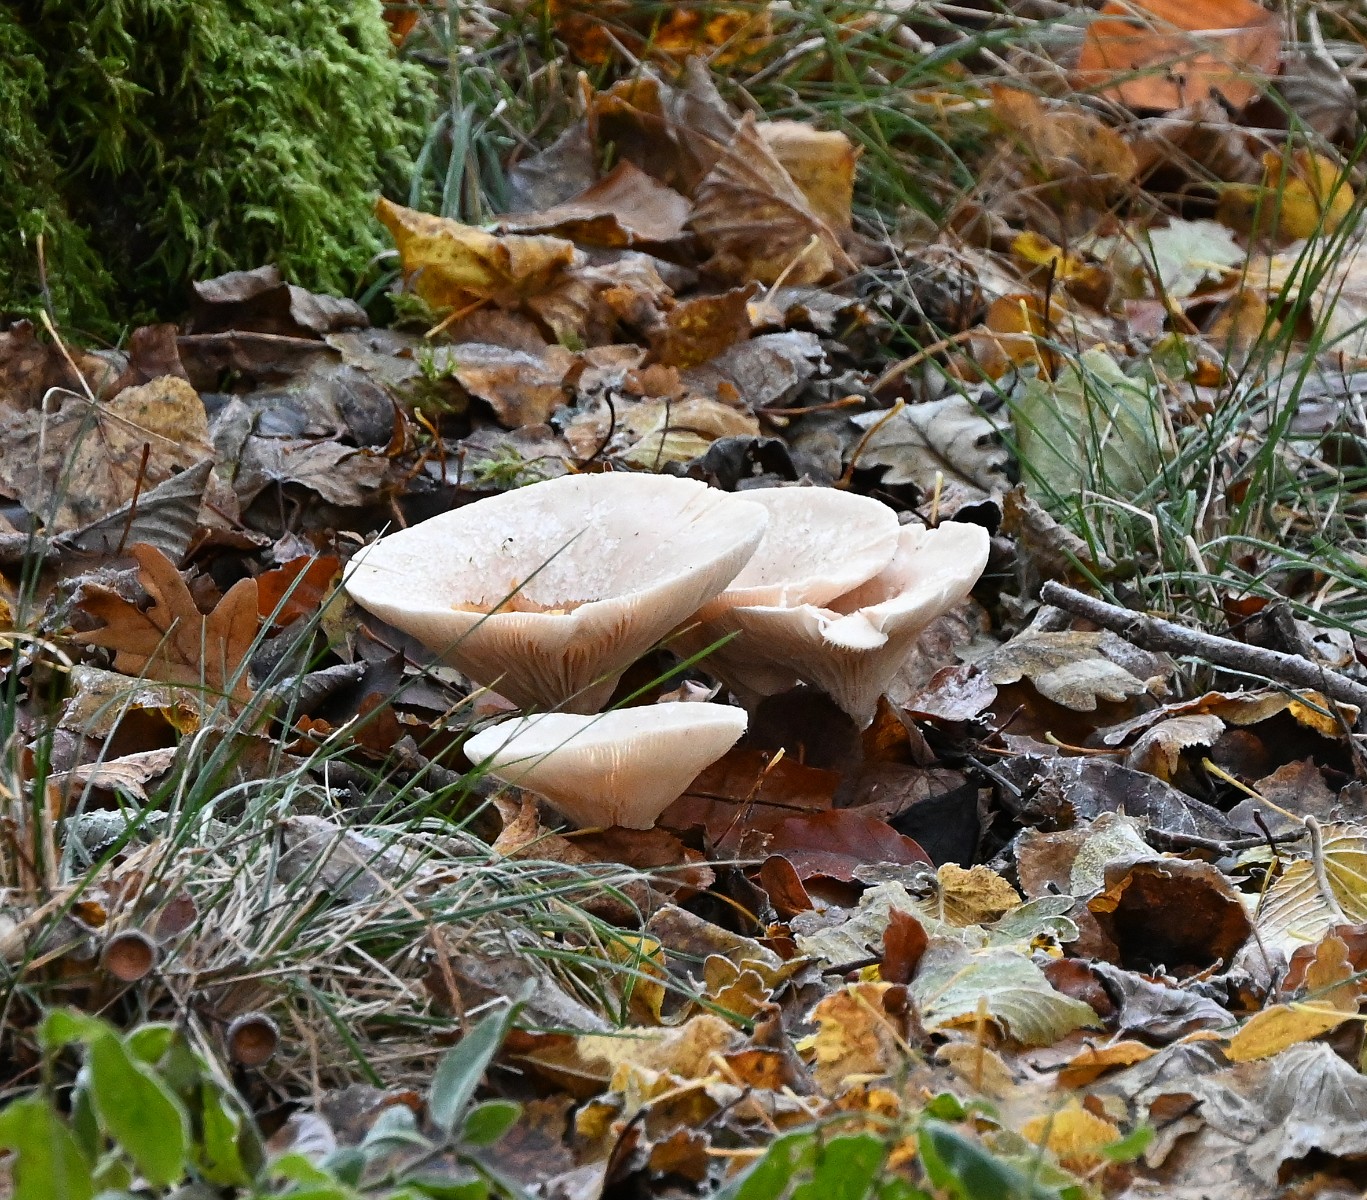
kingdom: Fungi
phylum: Basidiomycota
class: Agaricomycetes
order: Agaricales
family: Tricholomataceae
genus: Infundibulicybe
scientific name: Infundibulicybe geotropa
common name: stor tragthat
